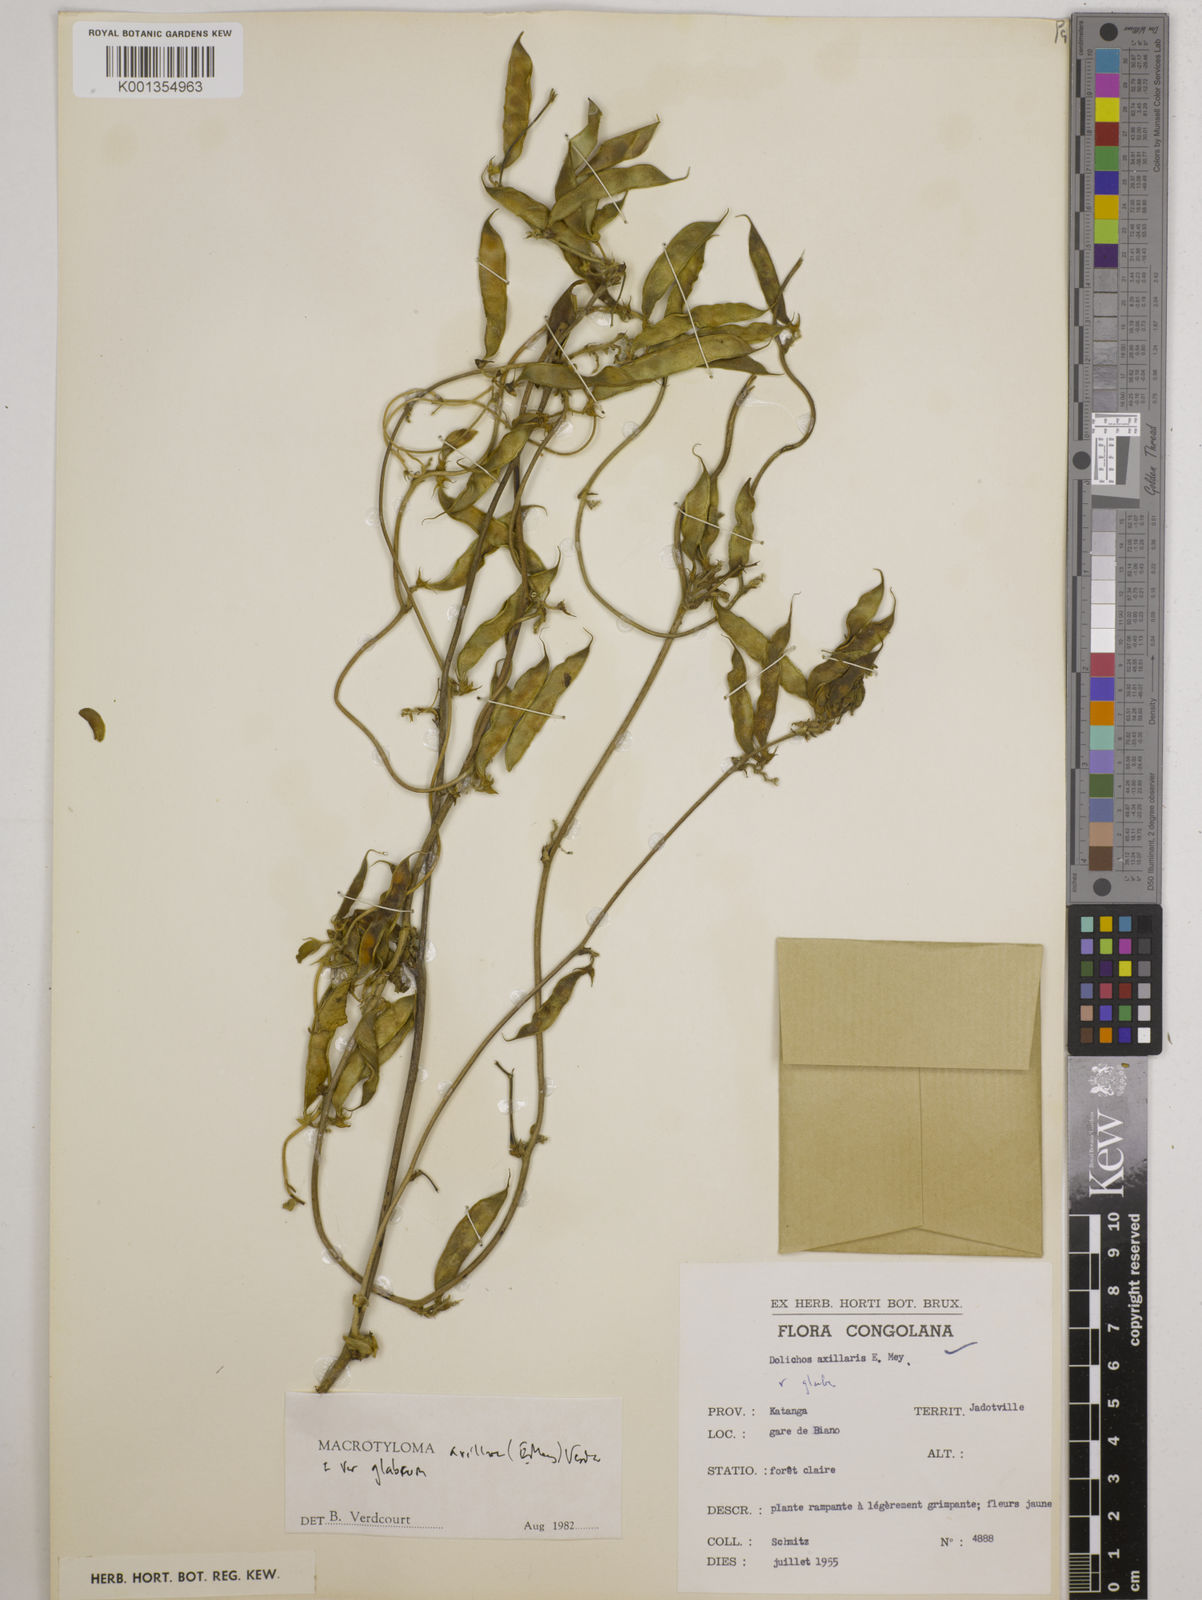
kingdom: Plantae
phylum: Tracheophyta
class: Magnoliopsida
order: Fabales
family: Fabaceae
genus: Macrotyloma
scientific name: Macrotyloma axillare
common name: Perennial horsegram
